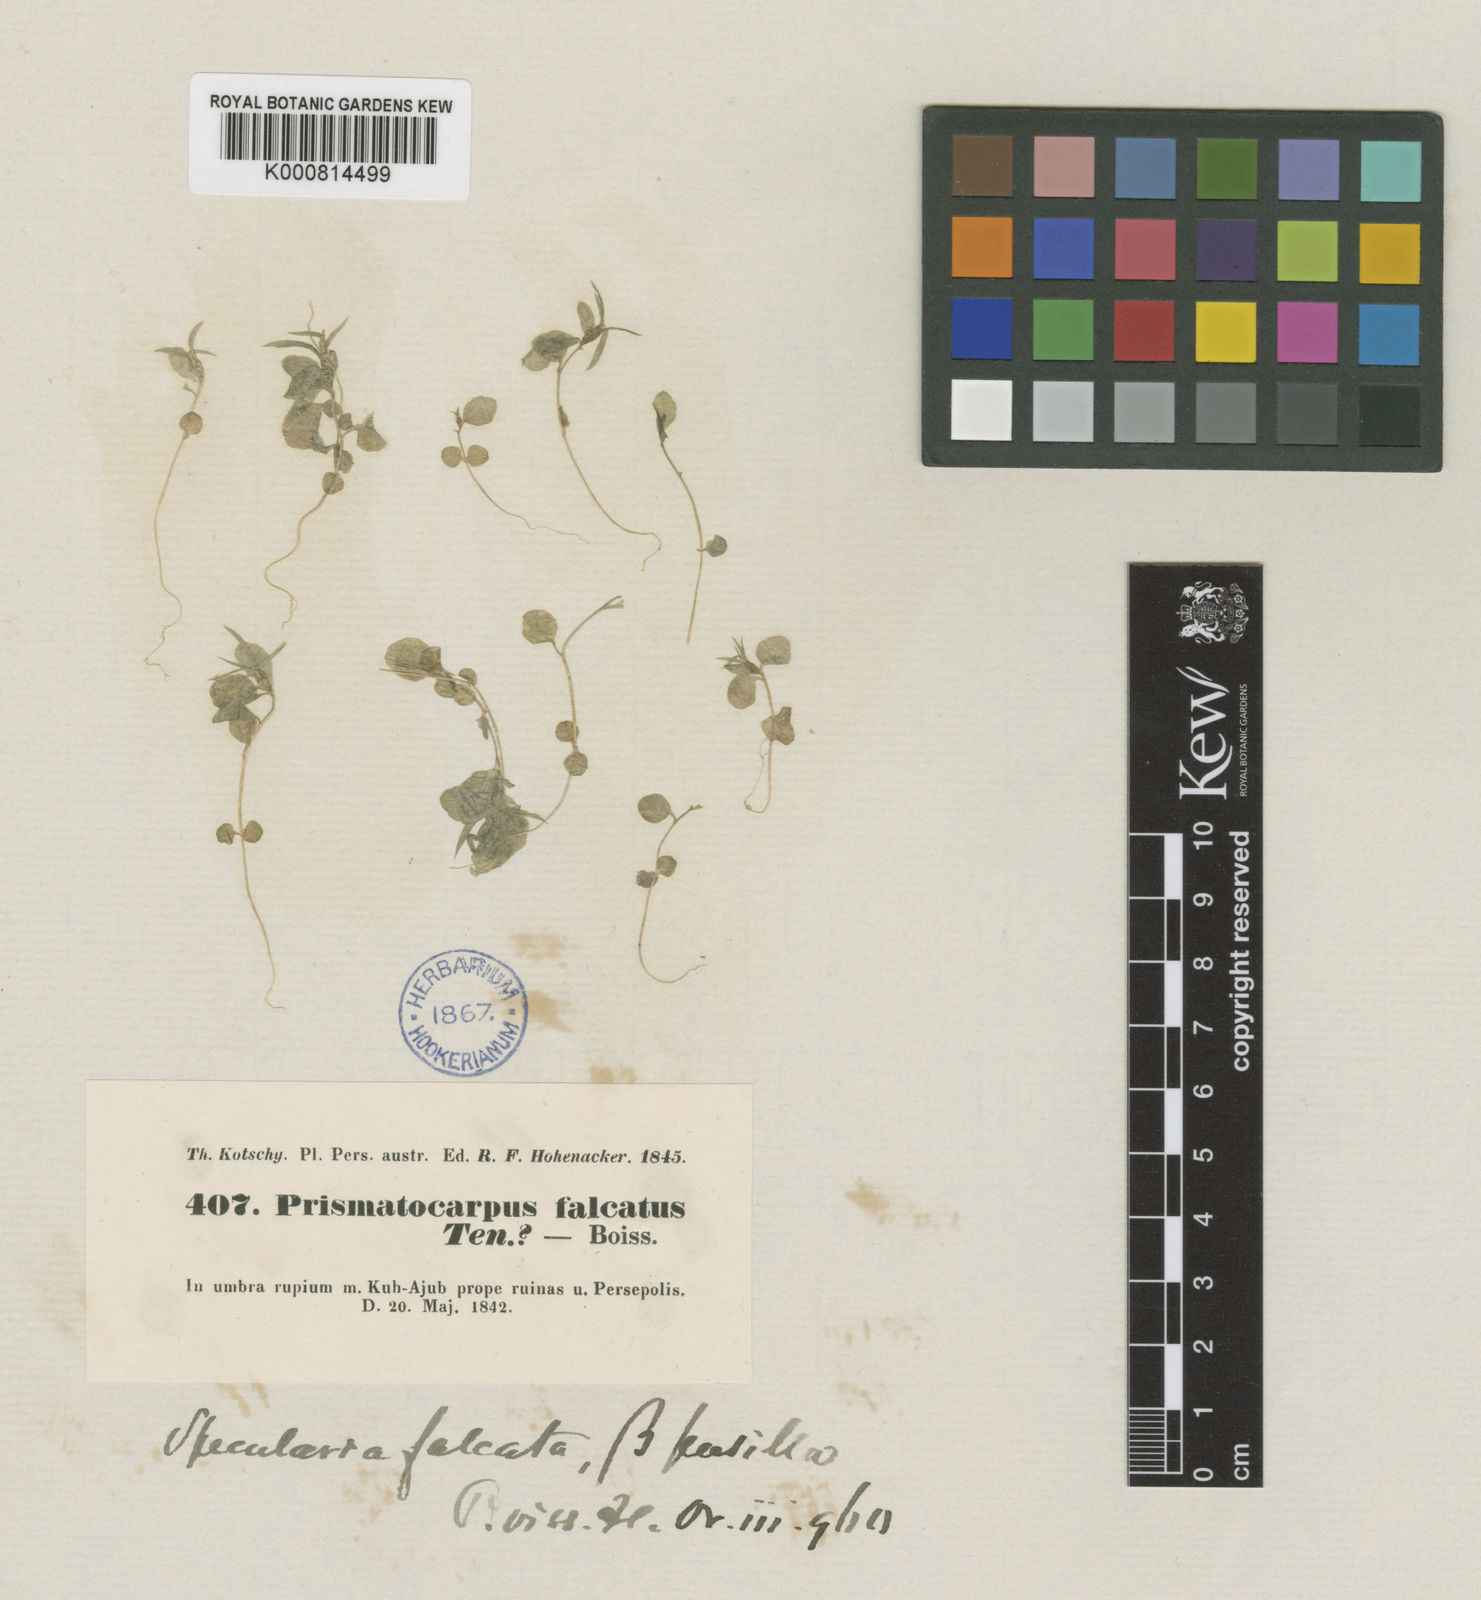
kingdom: Plantae
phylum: Tracheophyta
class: Magnoliopsida
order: Asterales
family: Campanulaceae
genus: Legousia
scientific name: Legousia falcata
